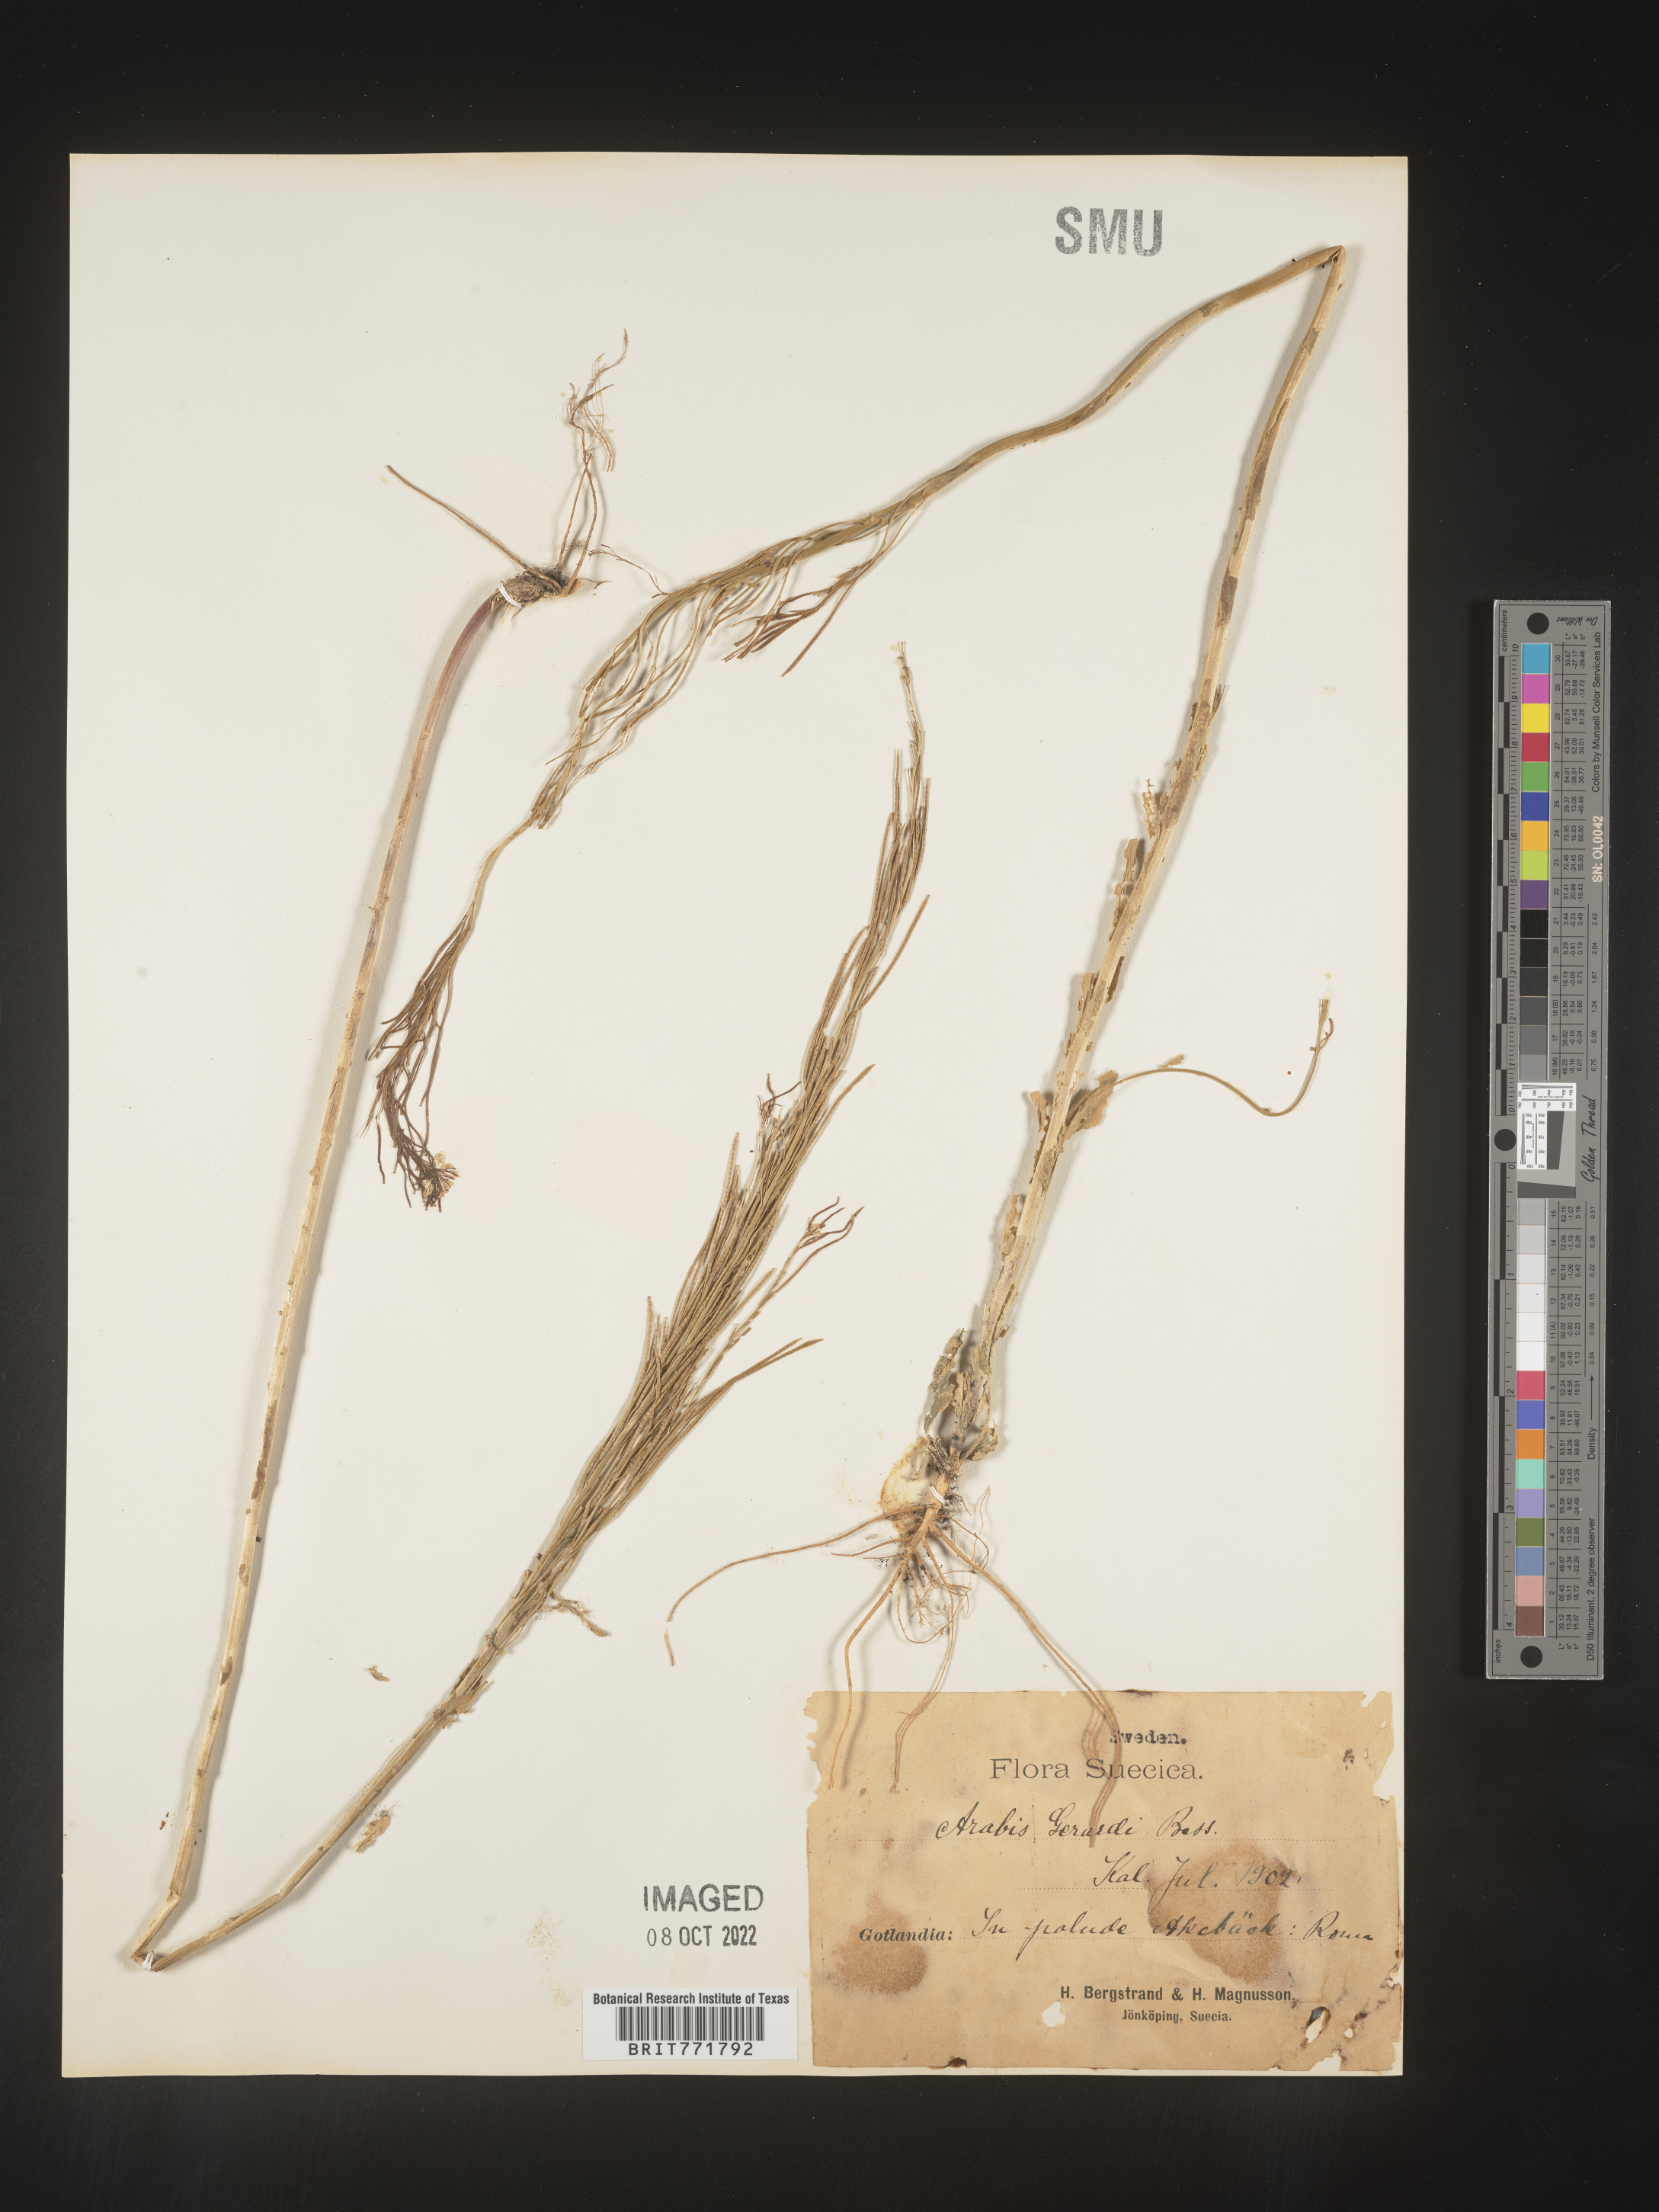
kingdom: Plantae
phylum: Tracheophyta
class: Magnoliopsida
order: Brassicales
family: Brassicaceae
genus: Arabis
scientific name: Arabis
